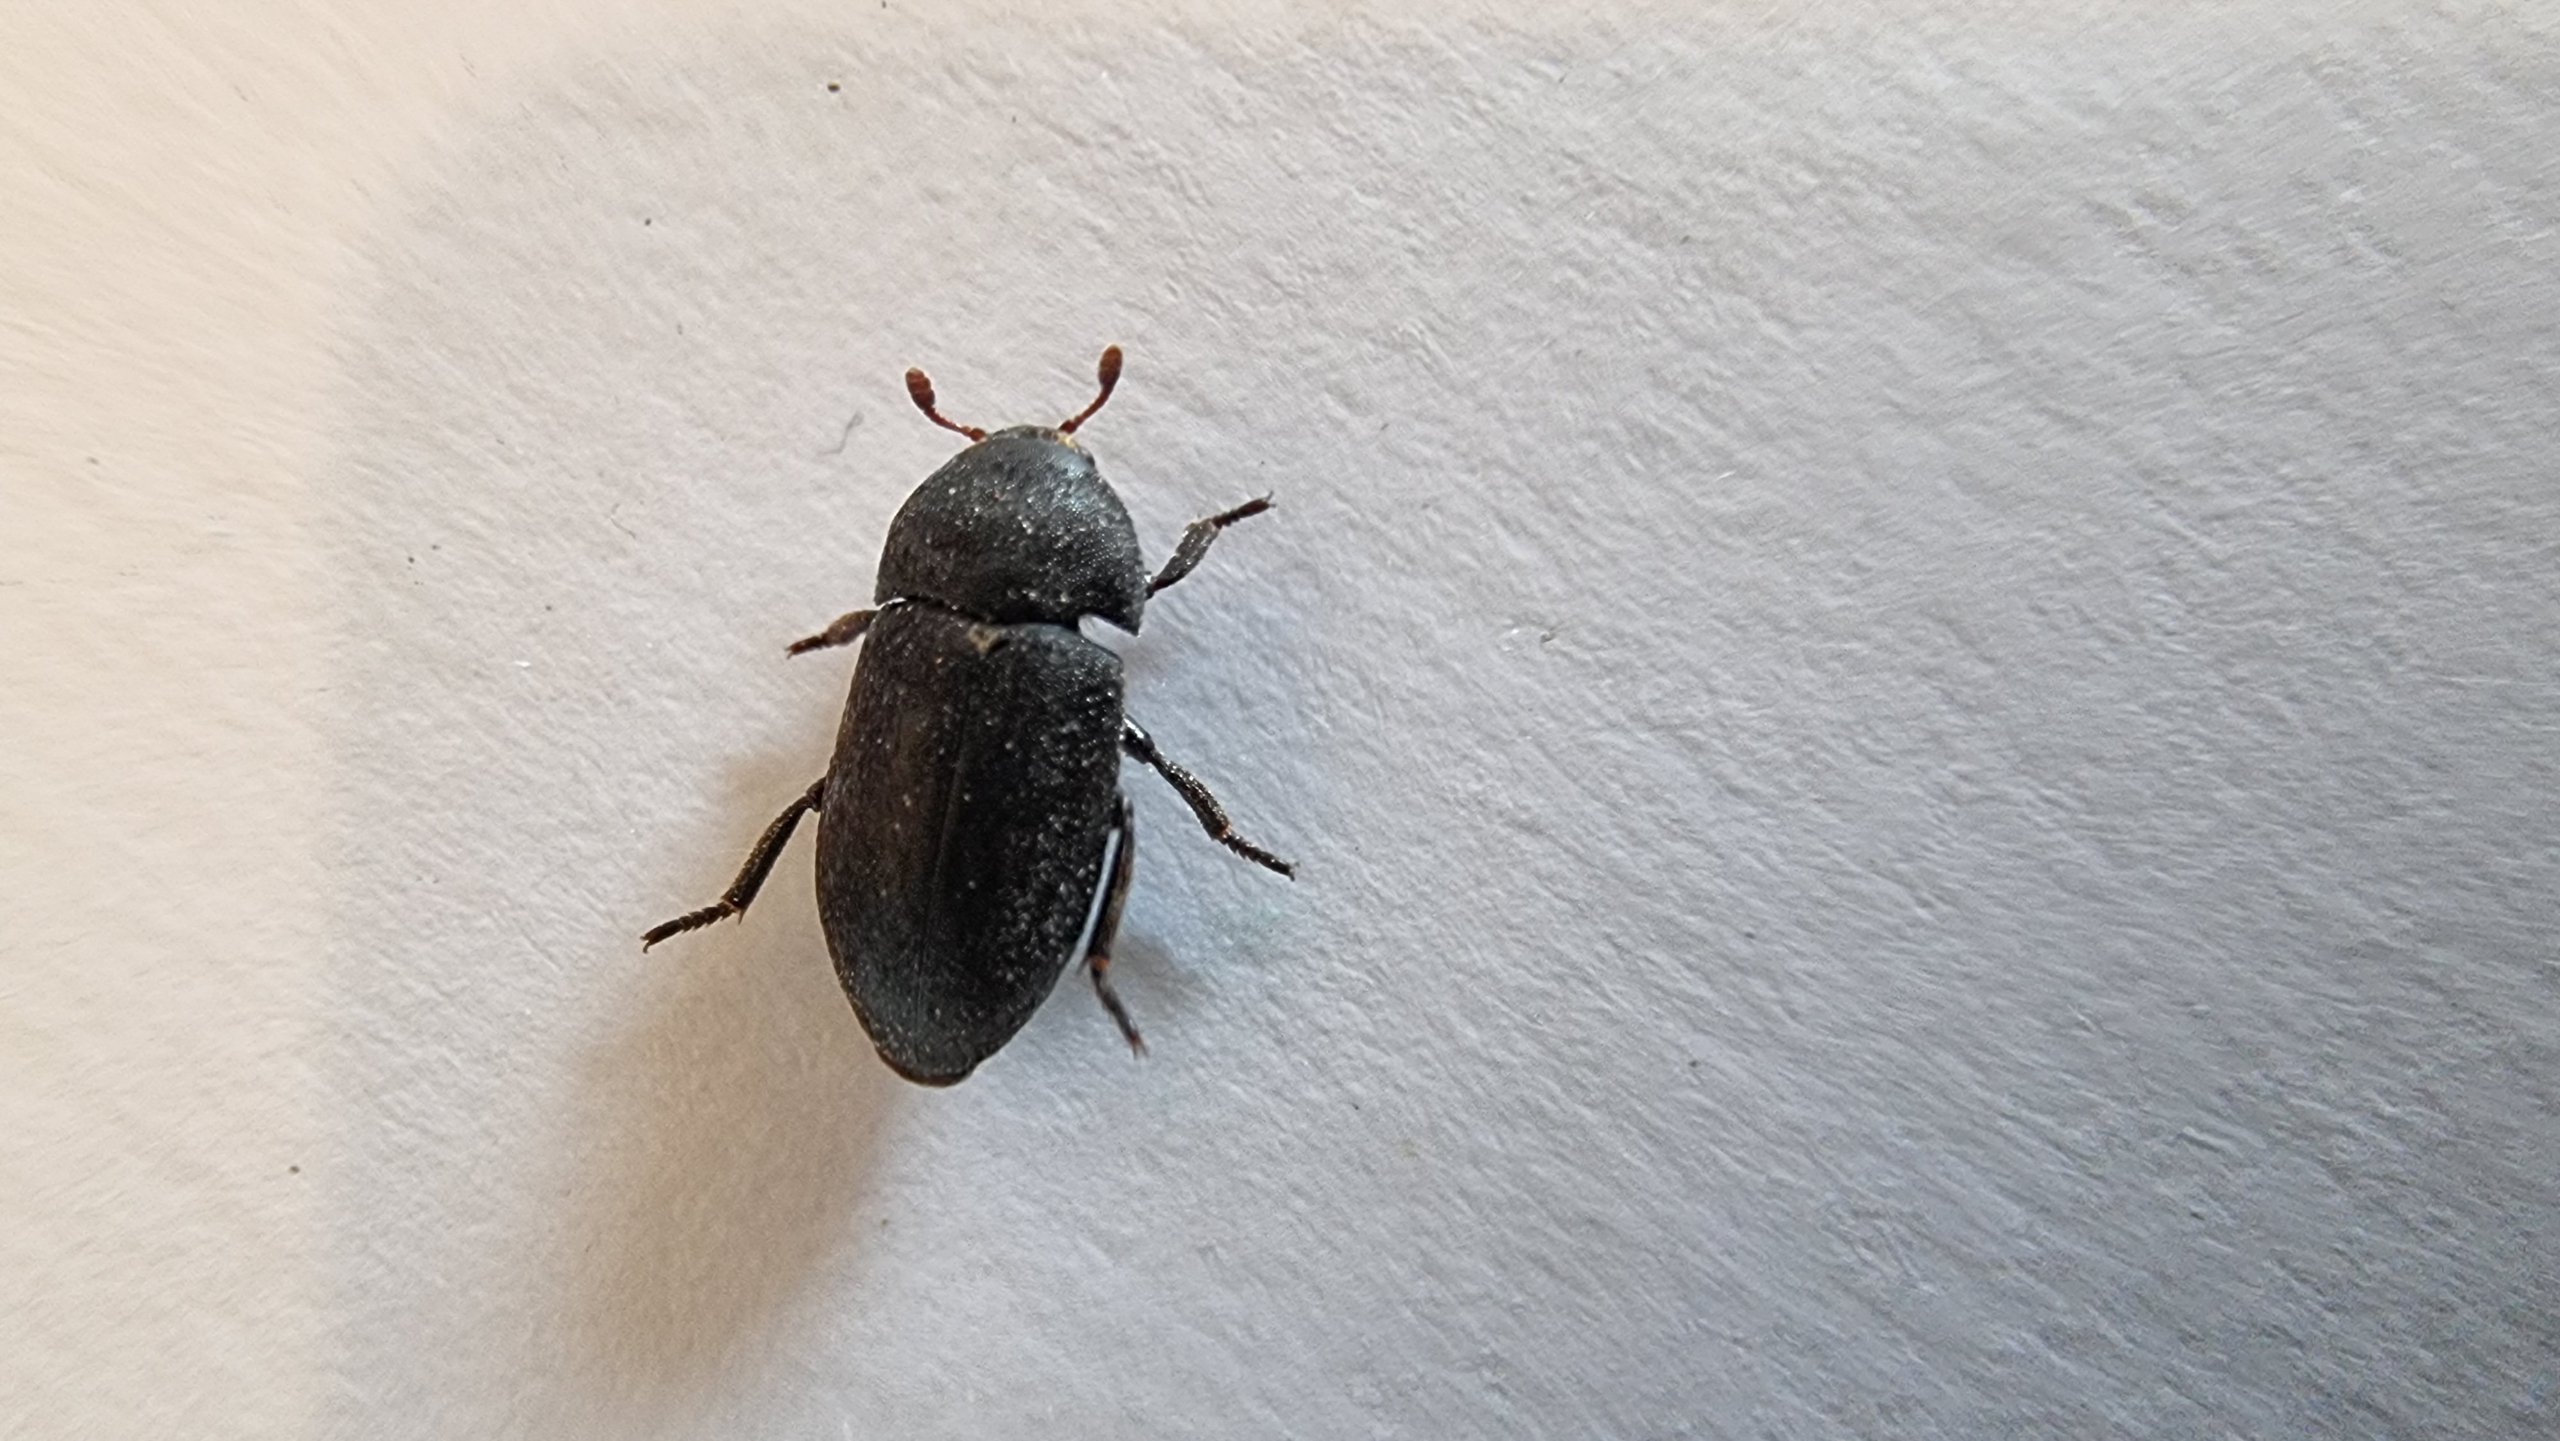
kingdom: Animalia
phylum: Arthropoda
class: Insecta
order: Coleoptera
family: Dermestidae
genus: Dermestes
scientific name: Dermestes laniarius
